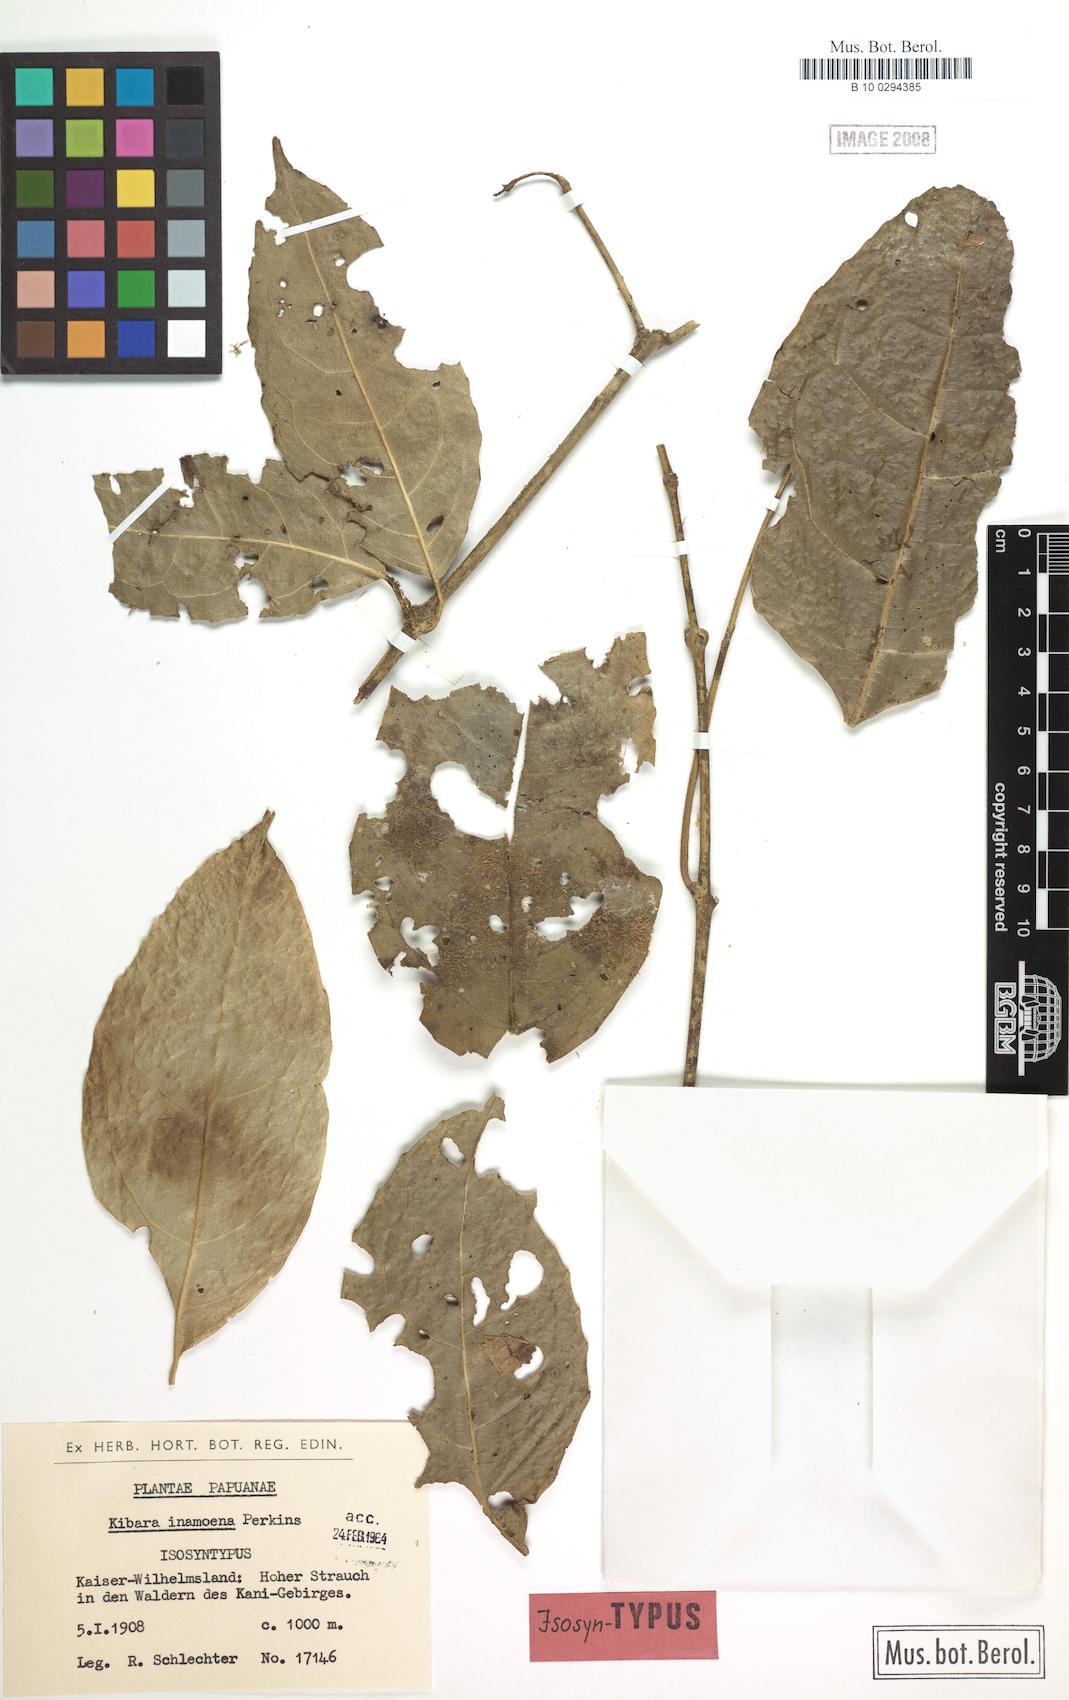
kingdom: Plantae
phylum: Tracheophyta
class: Magnoliopsida
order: Laurales
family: Monimiaceae
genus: Kibara
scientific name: Kibara coriacea
